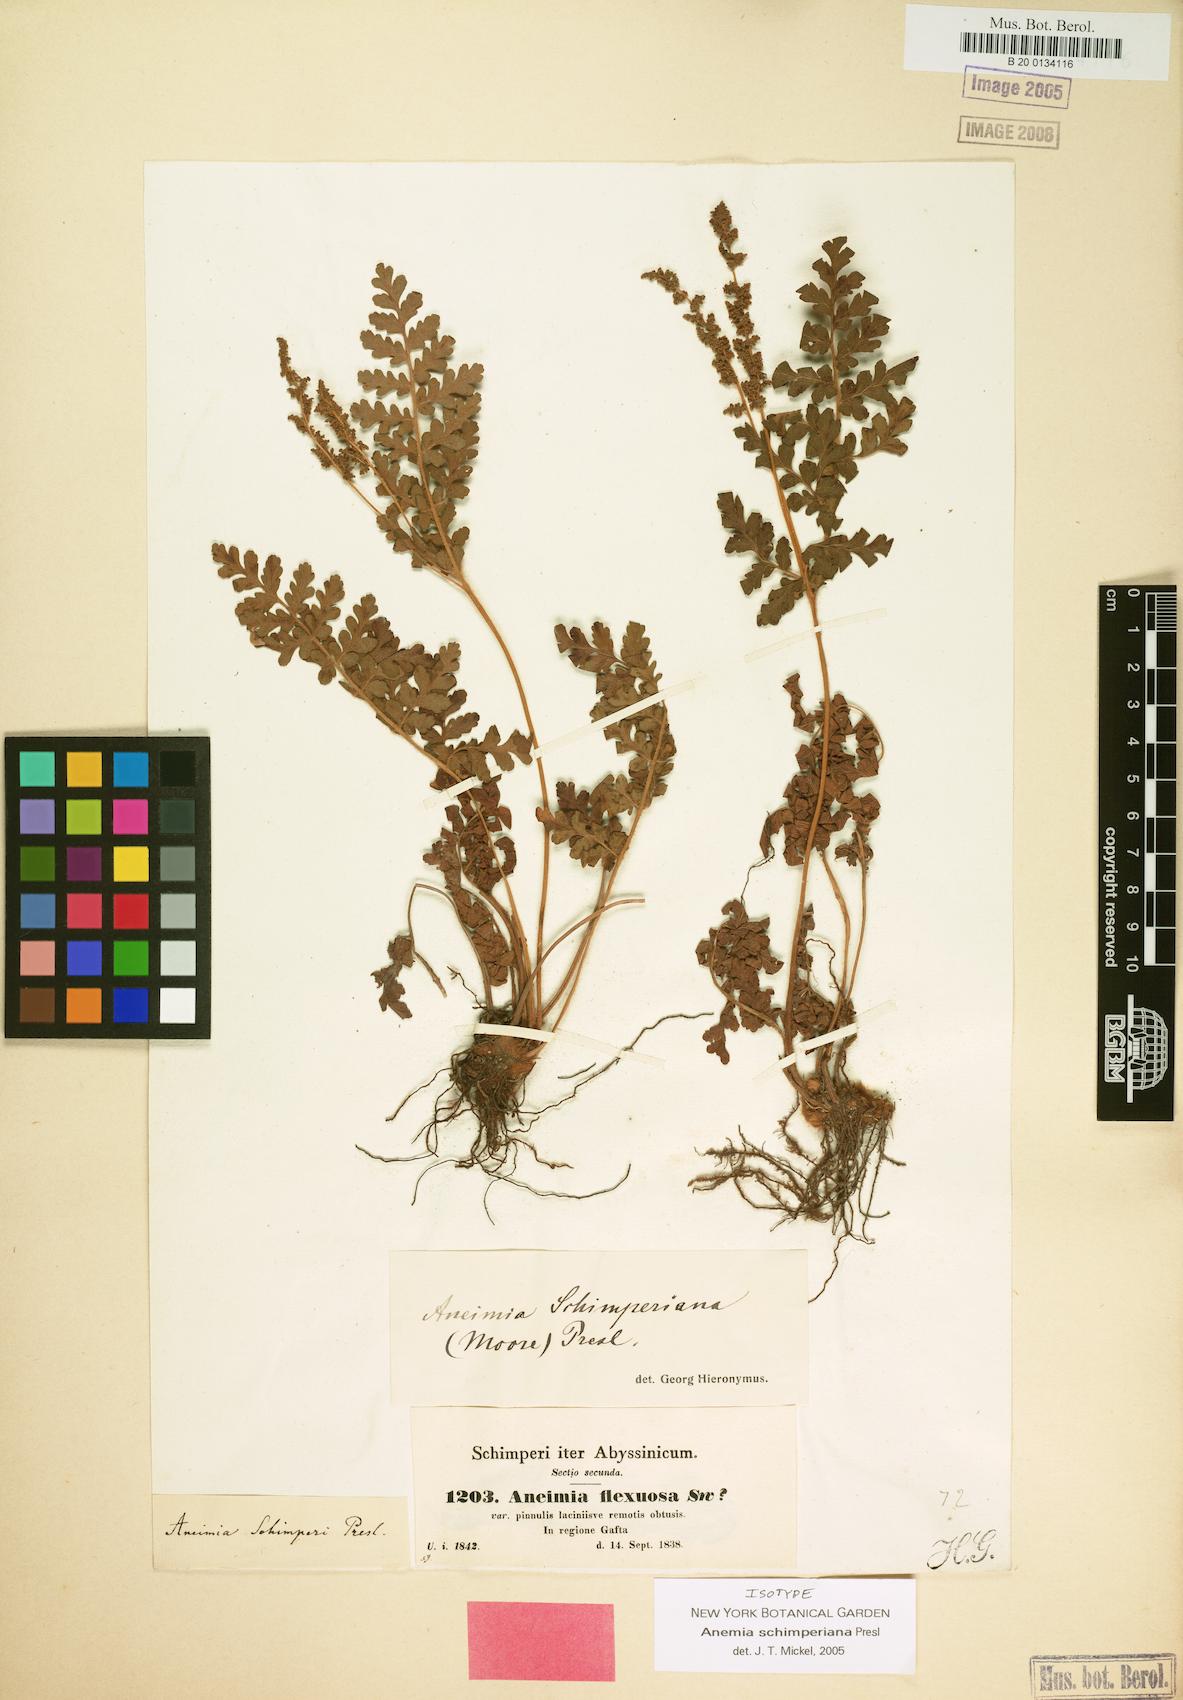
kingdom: Plantae
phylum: Tracheophyta
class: Polypodiopsida
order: Schizaeales
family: Anemiaceae
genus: Anemia
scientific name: Anemia schimperiana
